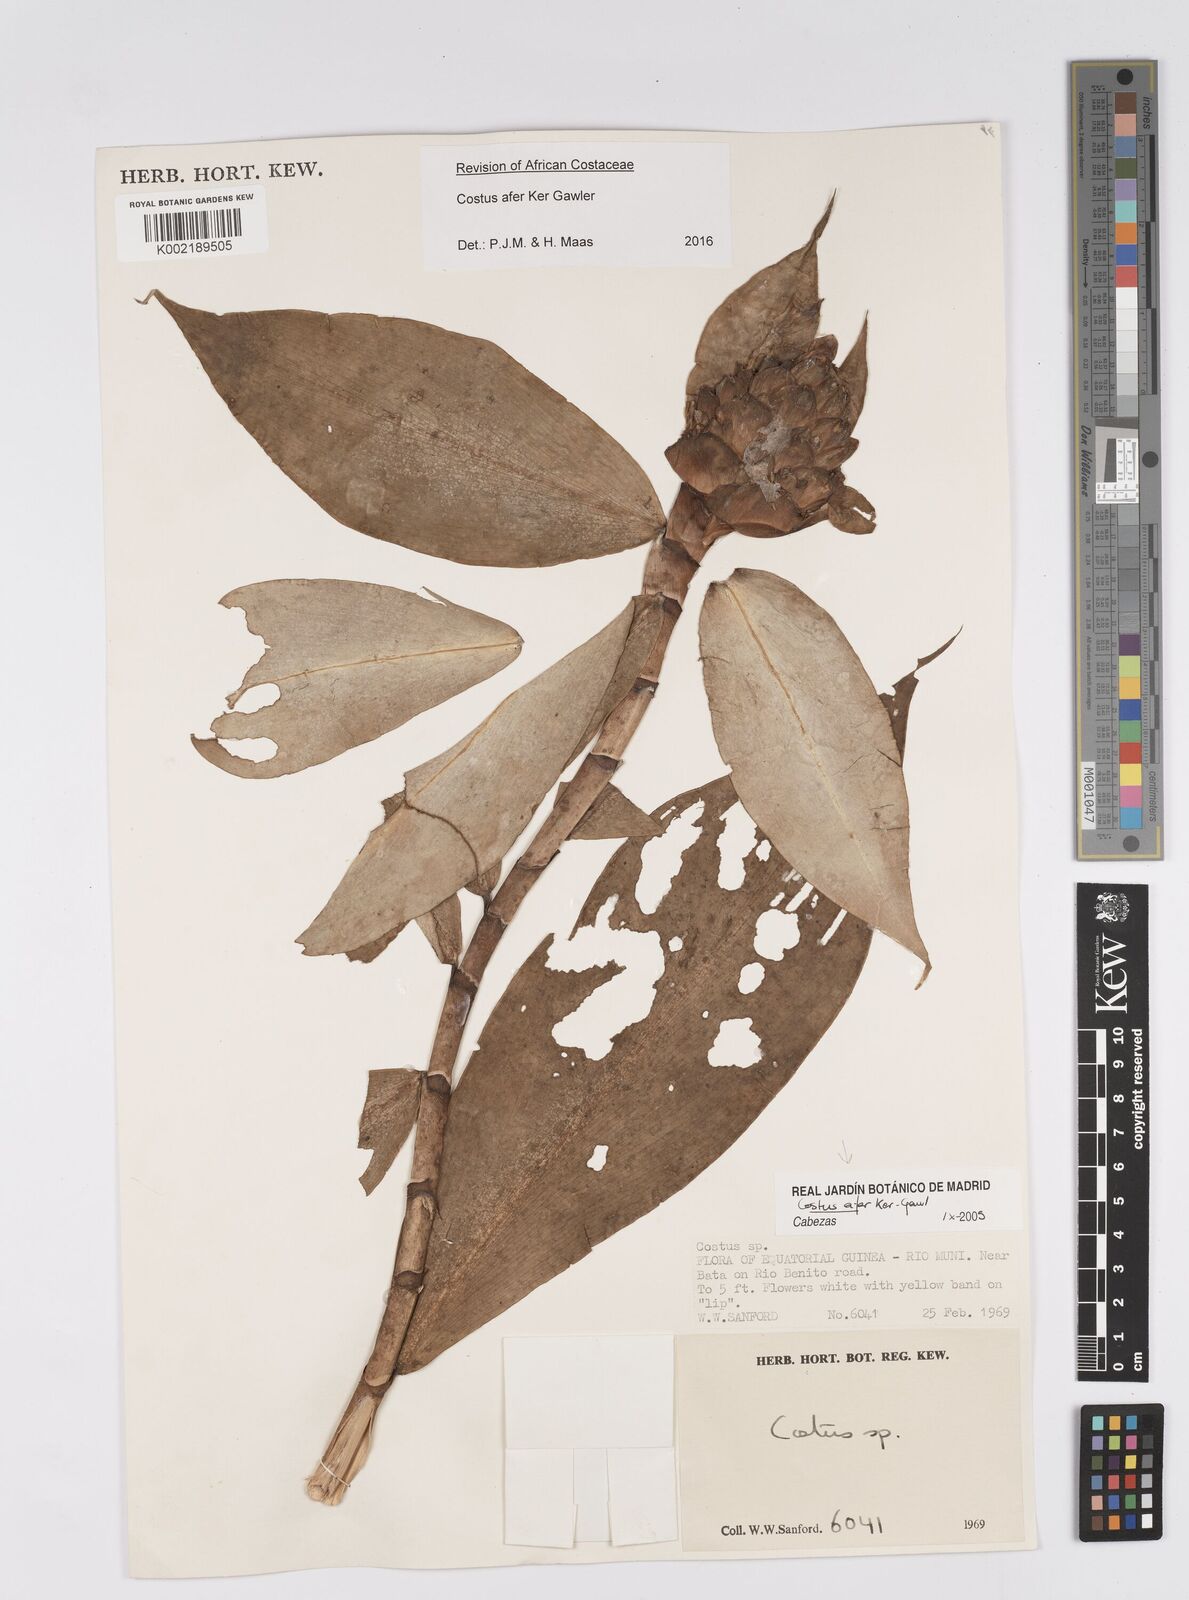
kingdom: Plantae
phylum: Tracheophyta
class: Liliopsida
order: Zingiberales
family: Costaceae
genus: Costus
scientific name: Costus afer
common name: Spiral-ginger
